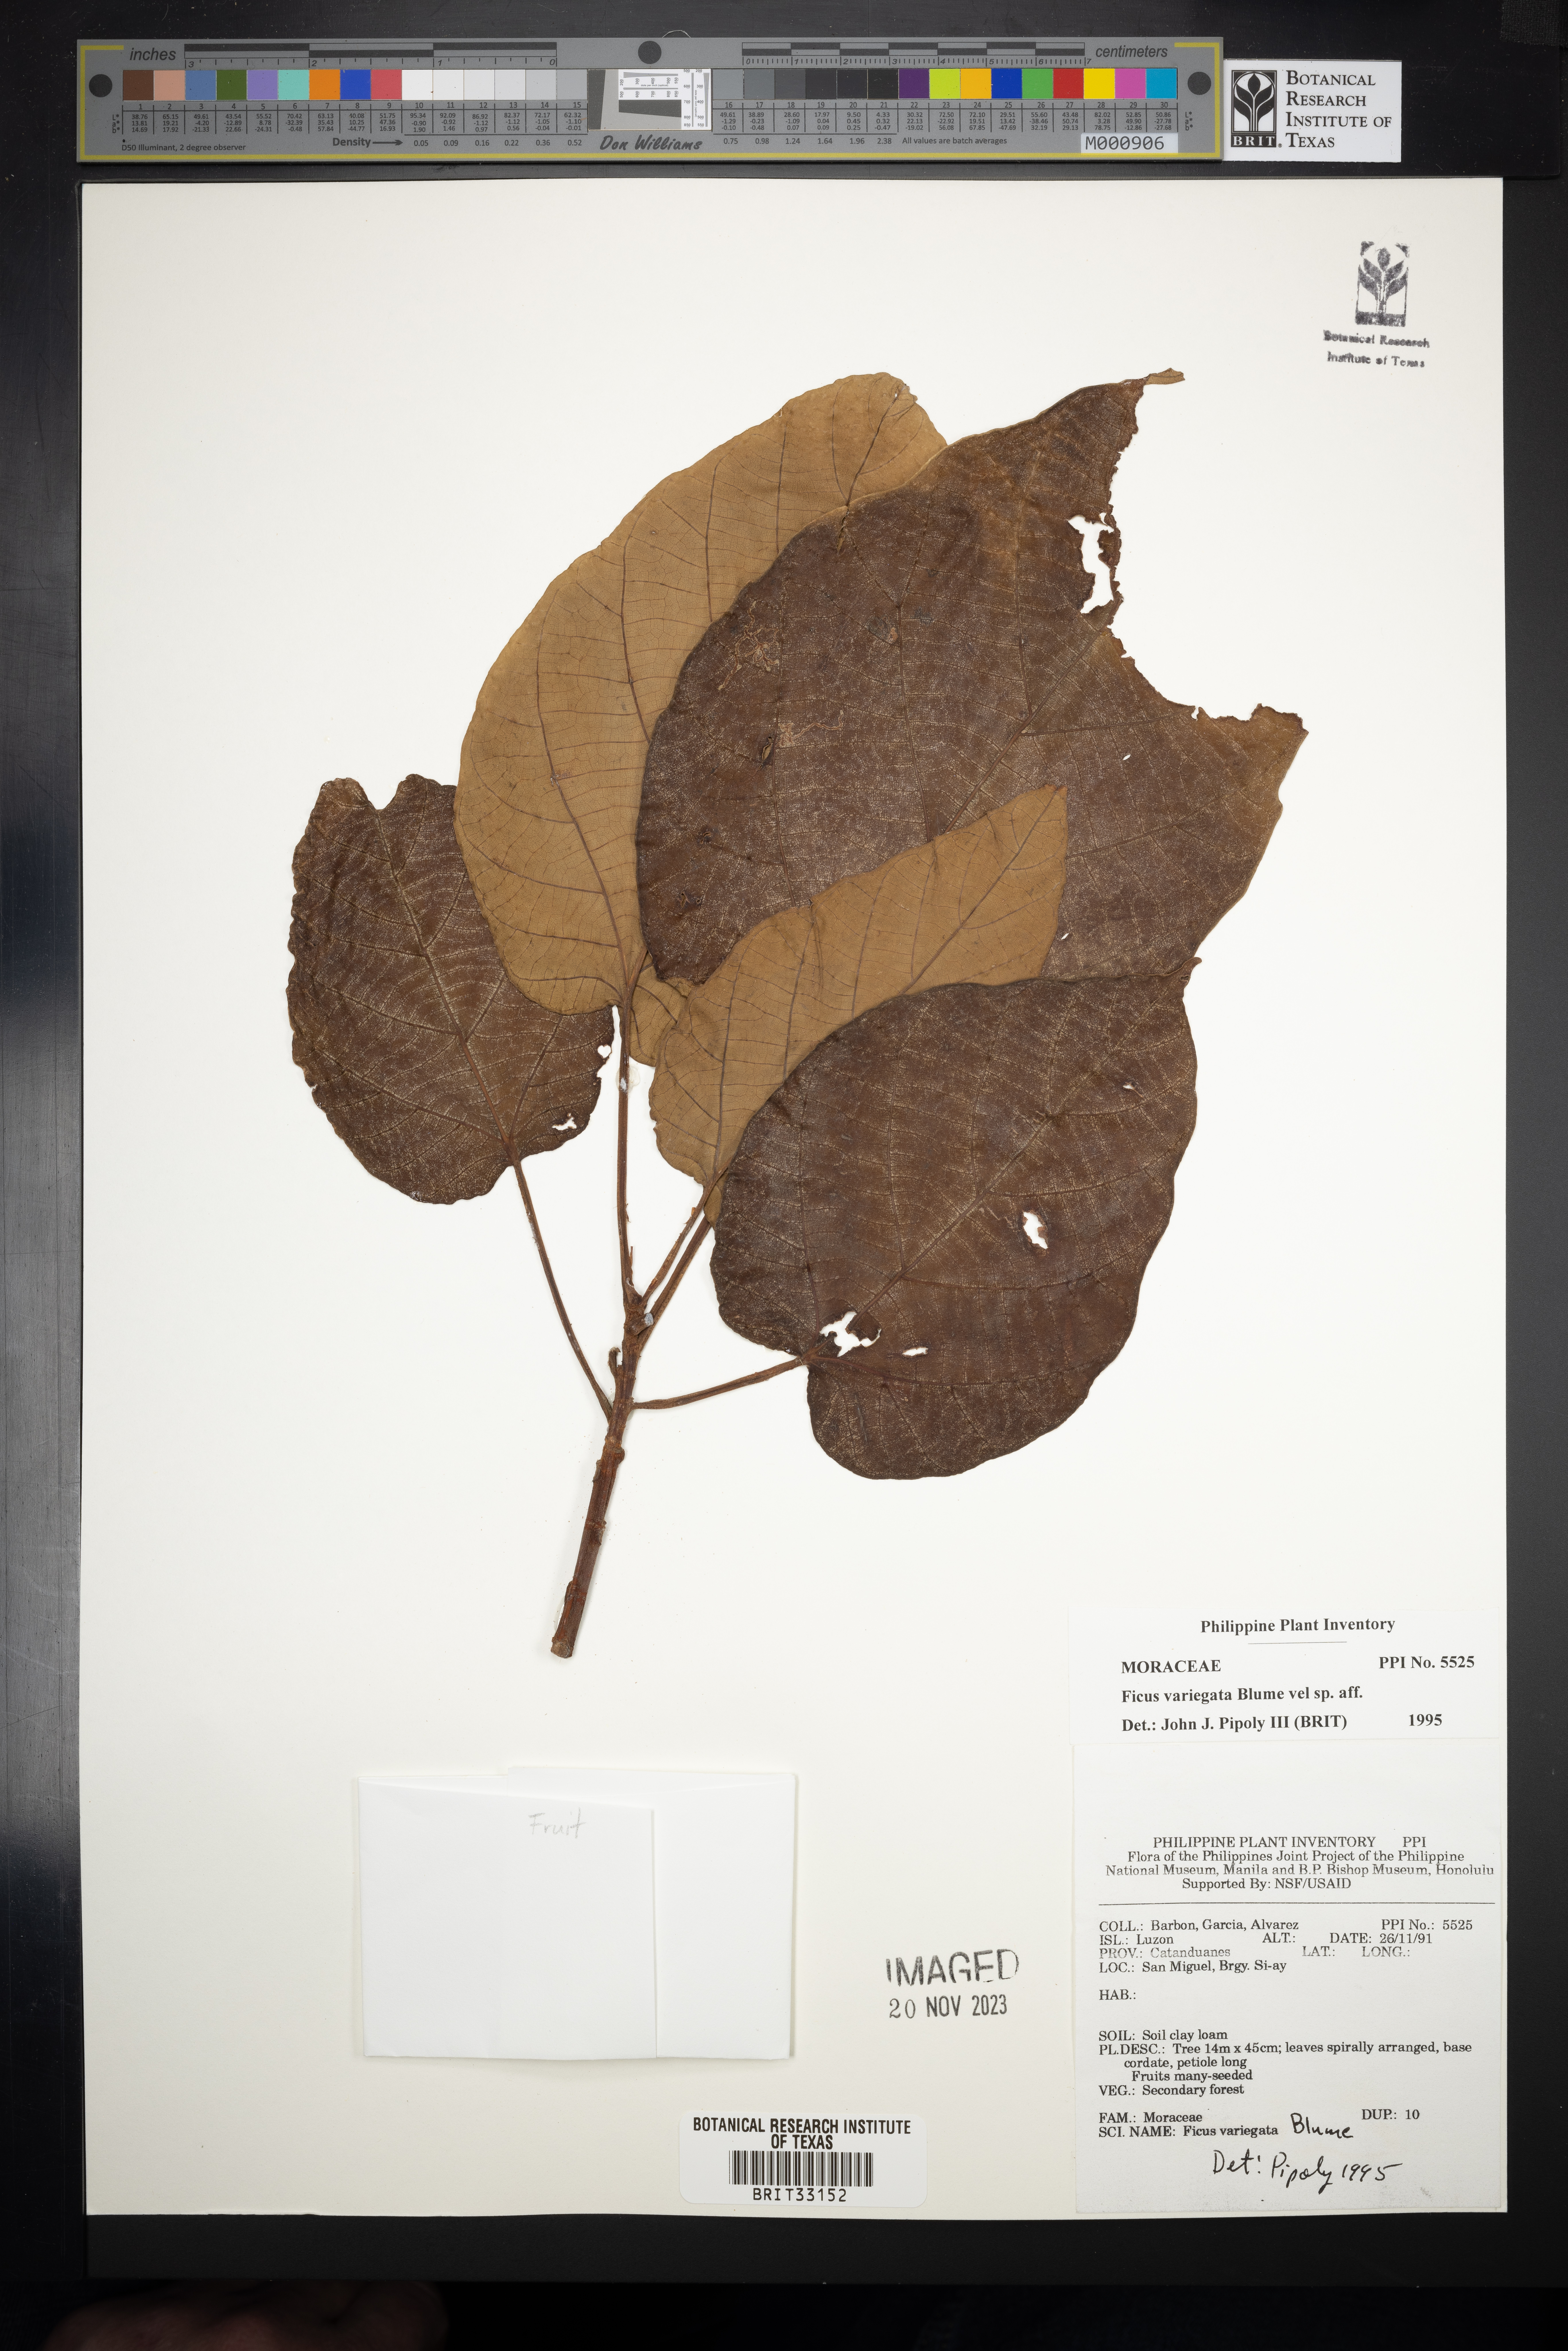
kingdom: Plantae
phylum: Tracheophyta
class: Magnoliopsida
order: Rosales
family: Moraceae
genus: Ficus
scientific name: Ficus variegata
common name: Variegated fig
